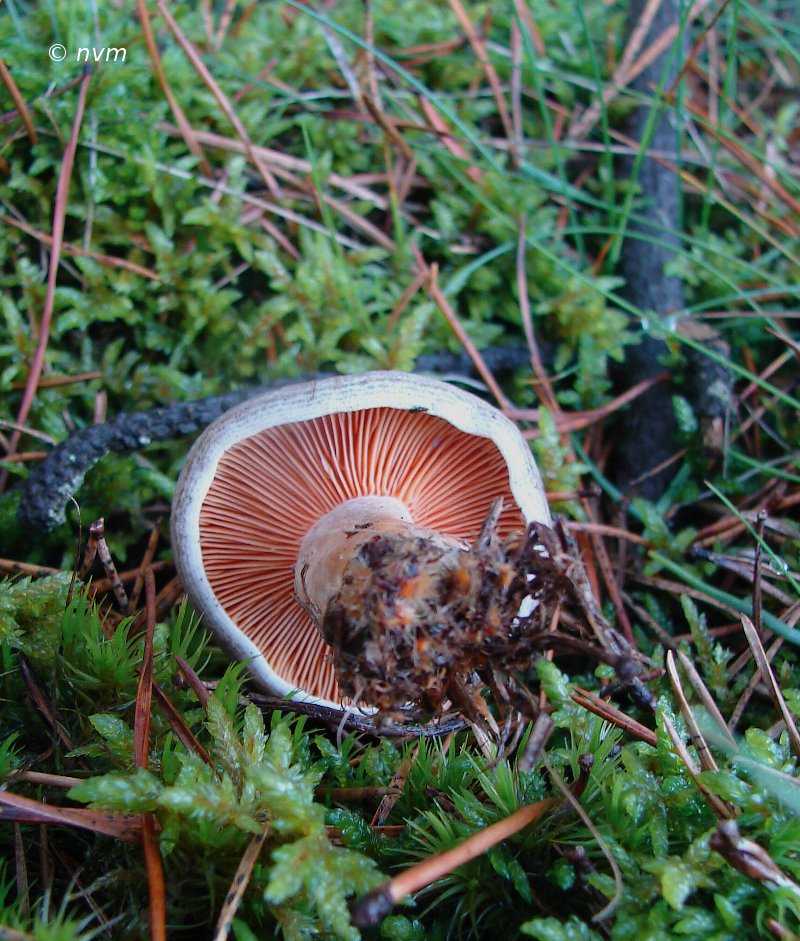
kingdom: Fungi
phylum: Basidiomycota
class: Agaricomycetes
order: Russulales
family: Russulaceae
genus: Lactarius
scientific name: Lactarius quieticolor
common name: tvefarvet mælkehat
